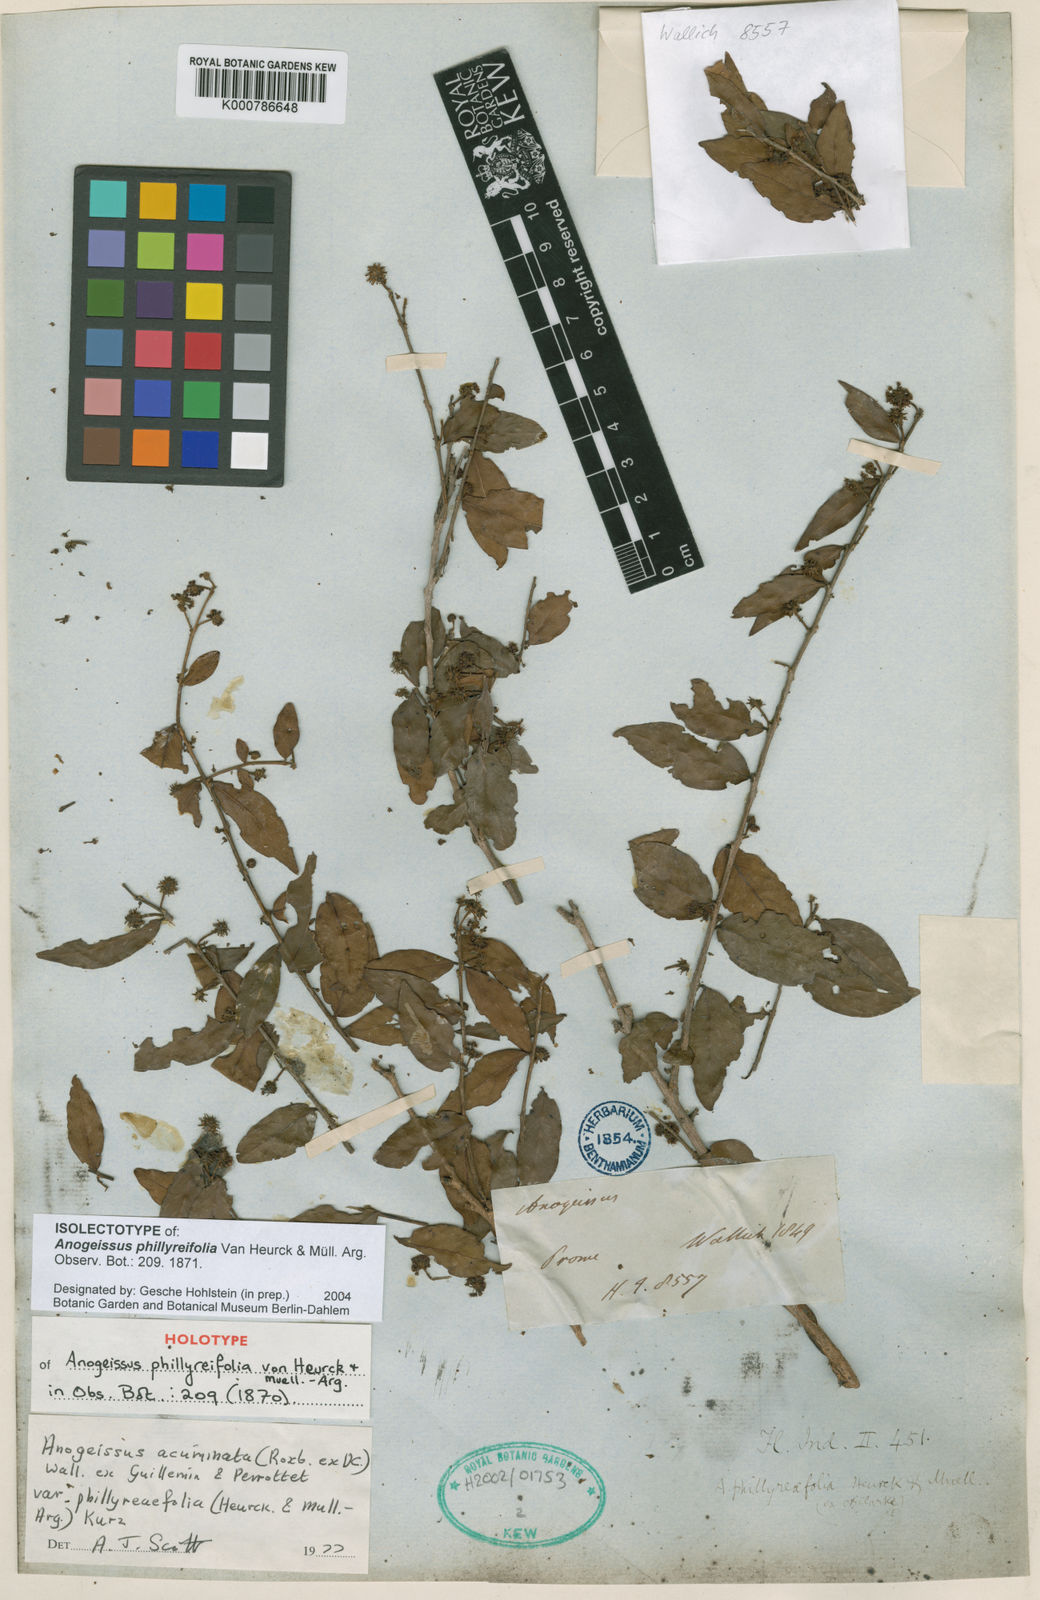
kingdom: Plantae
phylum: Tracheophyta
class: Magnoliopsida
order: Myrtales
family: Combretaceae
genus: Terminalia
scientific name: Terminalia phillyreifolia
